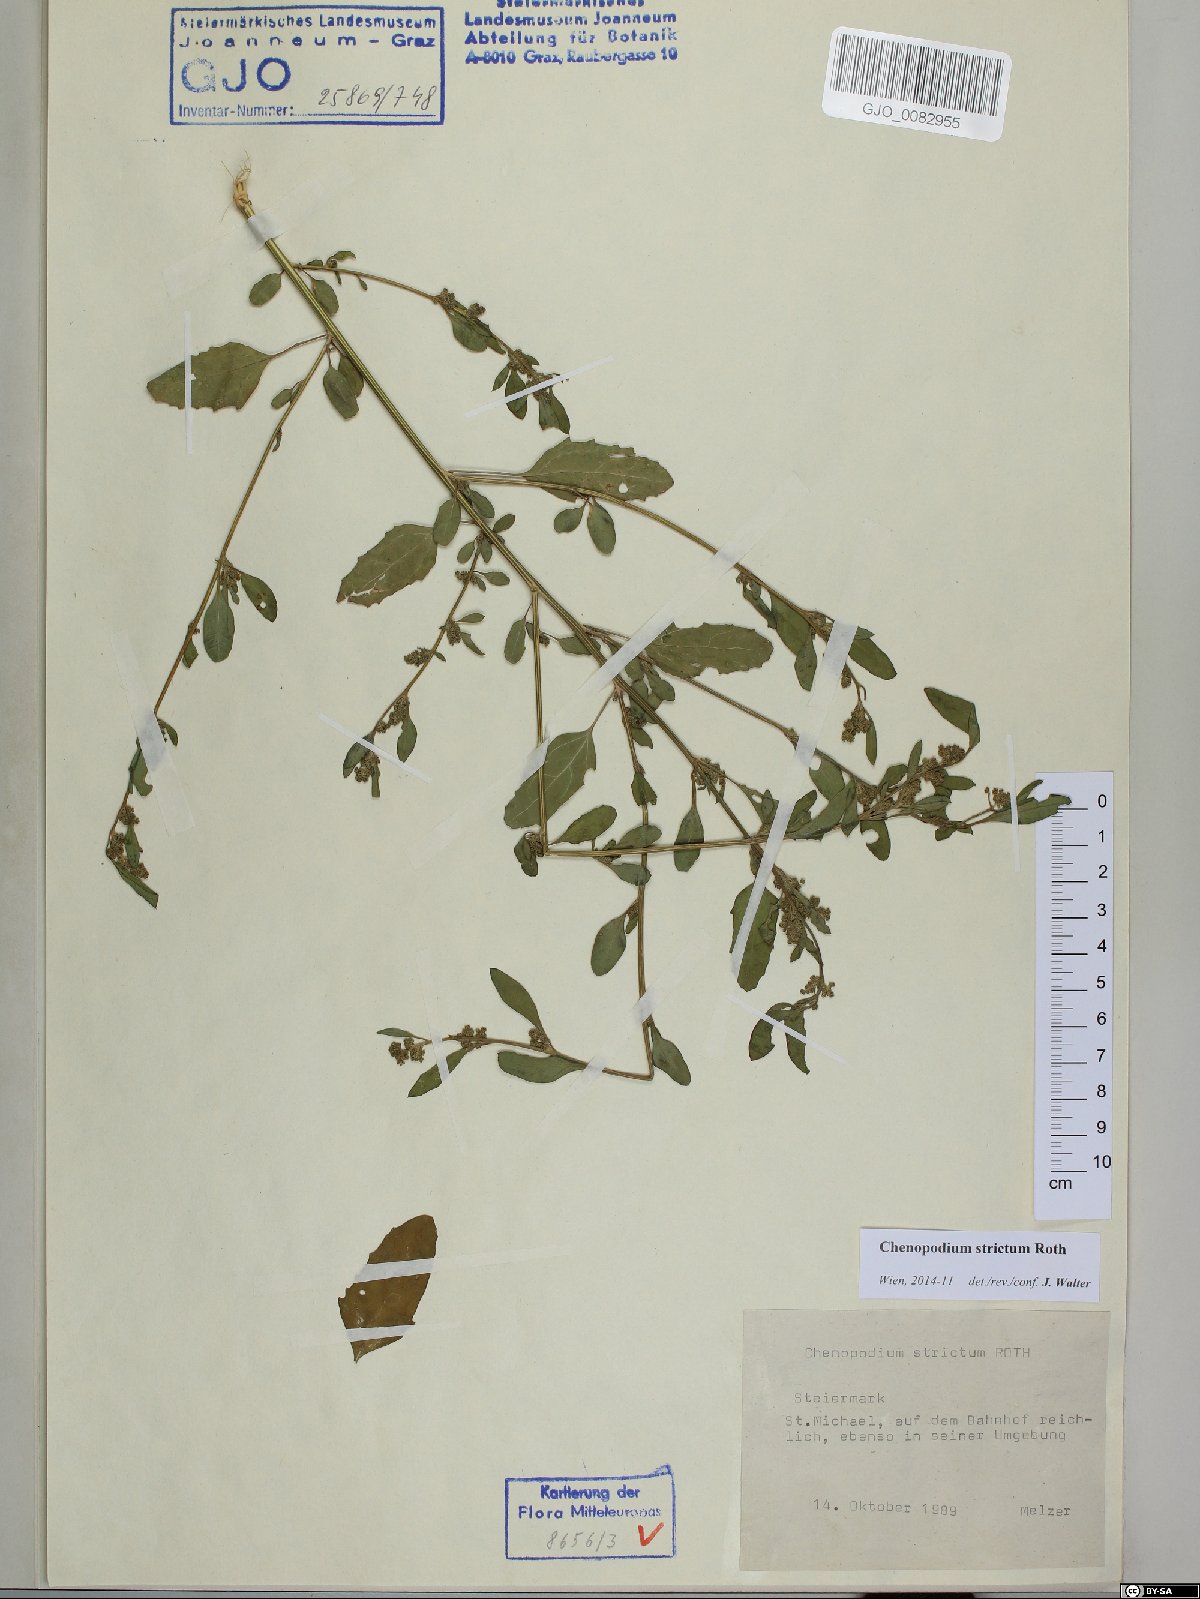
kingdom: Plantae
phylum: Tracheophyta
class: Magnoliopsida
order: Caryophyllales
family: Amaranthaceae
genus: Chenopodium
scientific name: Chenopodium album
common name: Fat-hen
